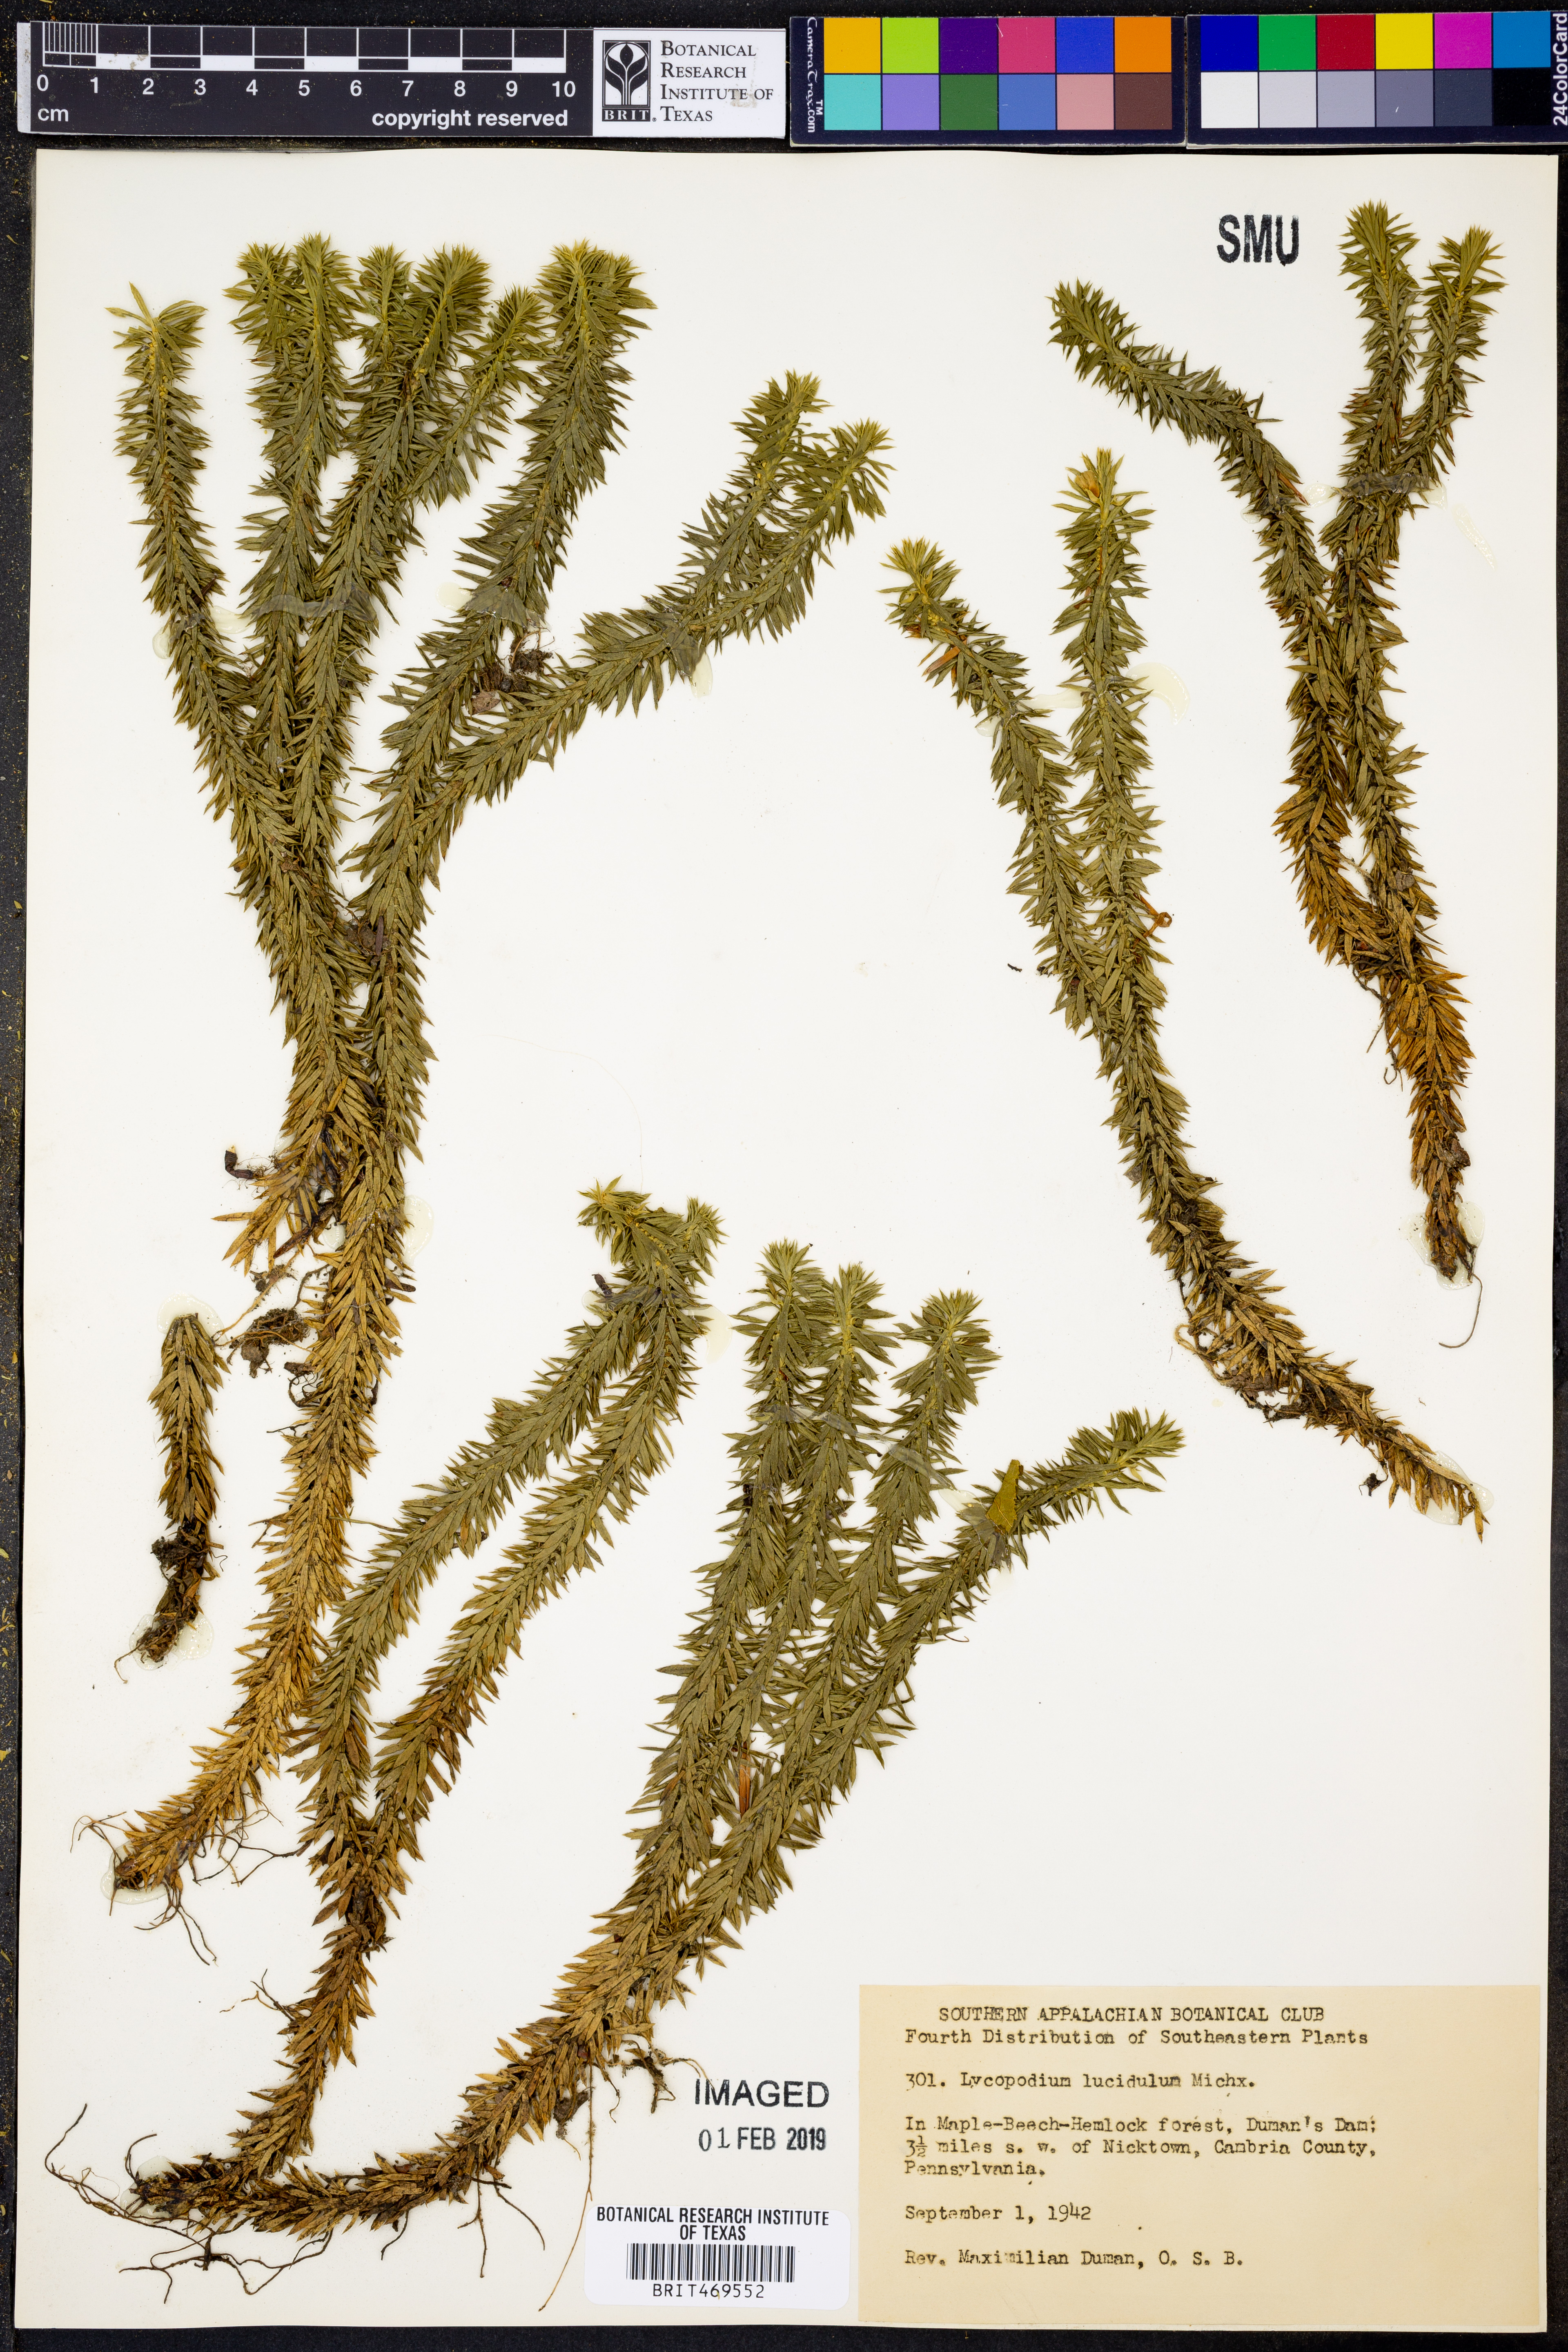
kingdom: Plantae
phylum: Tracheophyta
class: Lycopodiopsida
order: Lycopodiales
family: Lycopodiaceae
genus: Huperzia
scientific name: Huperzia lucidula
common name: Shining clubmoss
